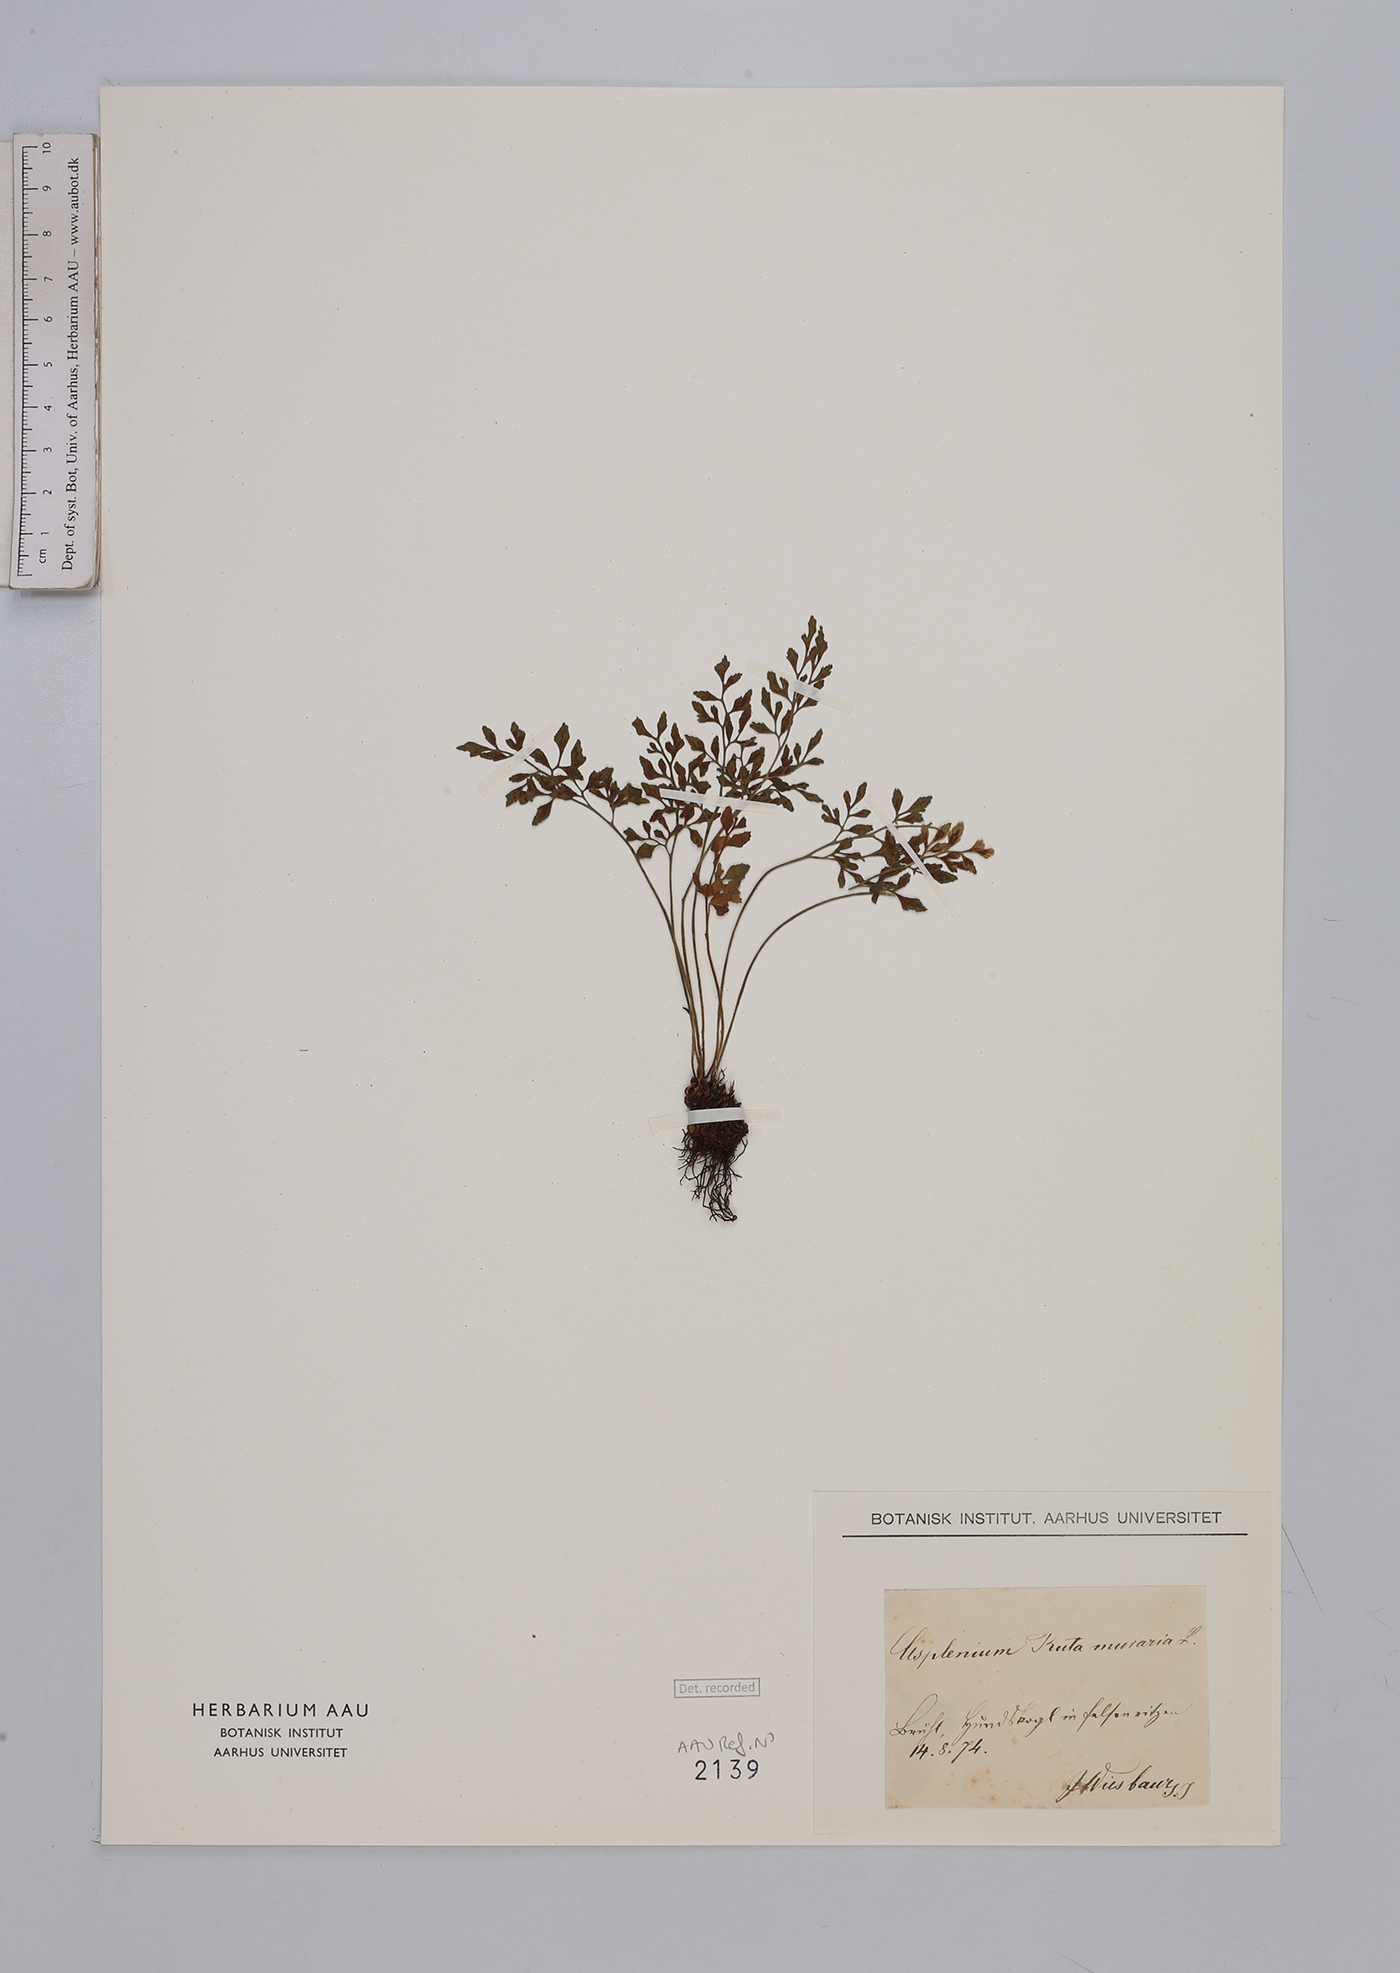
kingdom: Plantae
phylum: Tracheophyta
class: Polypodiopsida
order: Polypodiales
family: Aspleniaceae
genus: Asplenium
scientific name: Asplenium ruta-muraria
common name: Wall-rue
